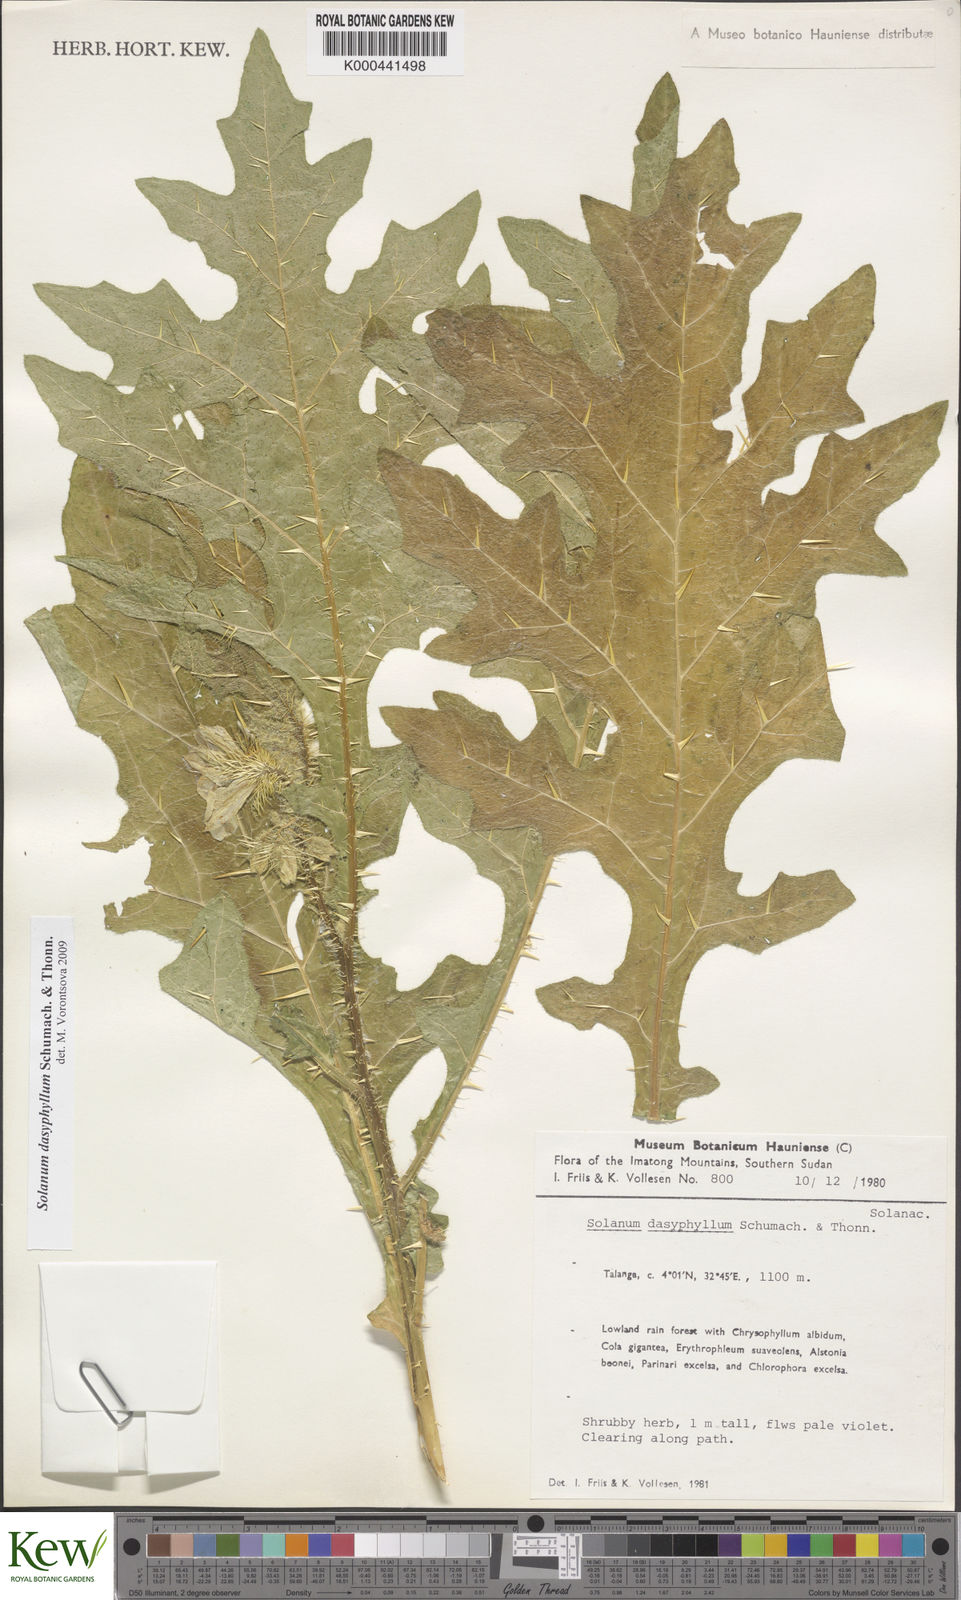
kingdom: Plantae
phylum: Tracheophyta
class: Magnoliopsida
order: Solanales
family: Solanaceae
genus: Solanum
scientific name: Solanum dasyphyllum
